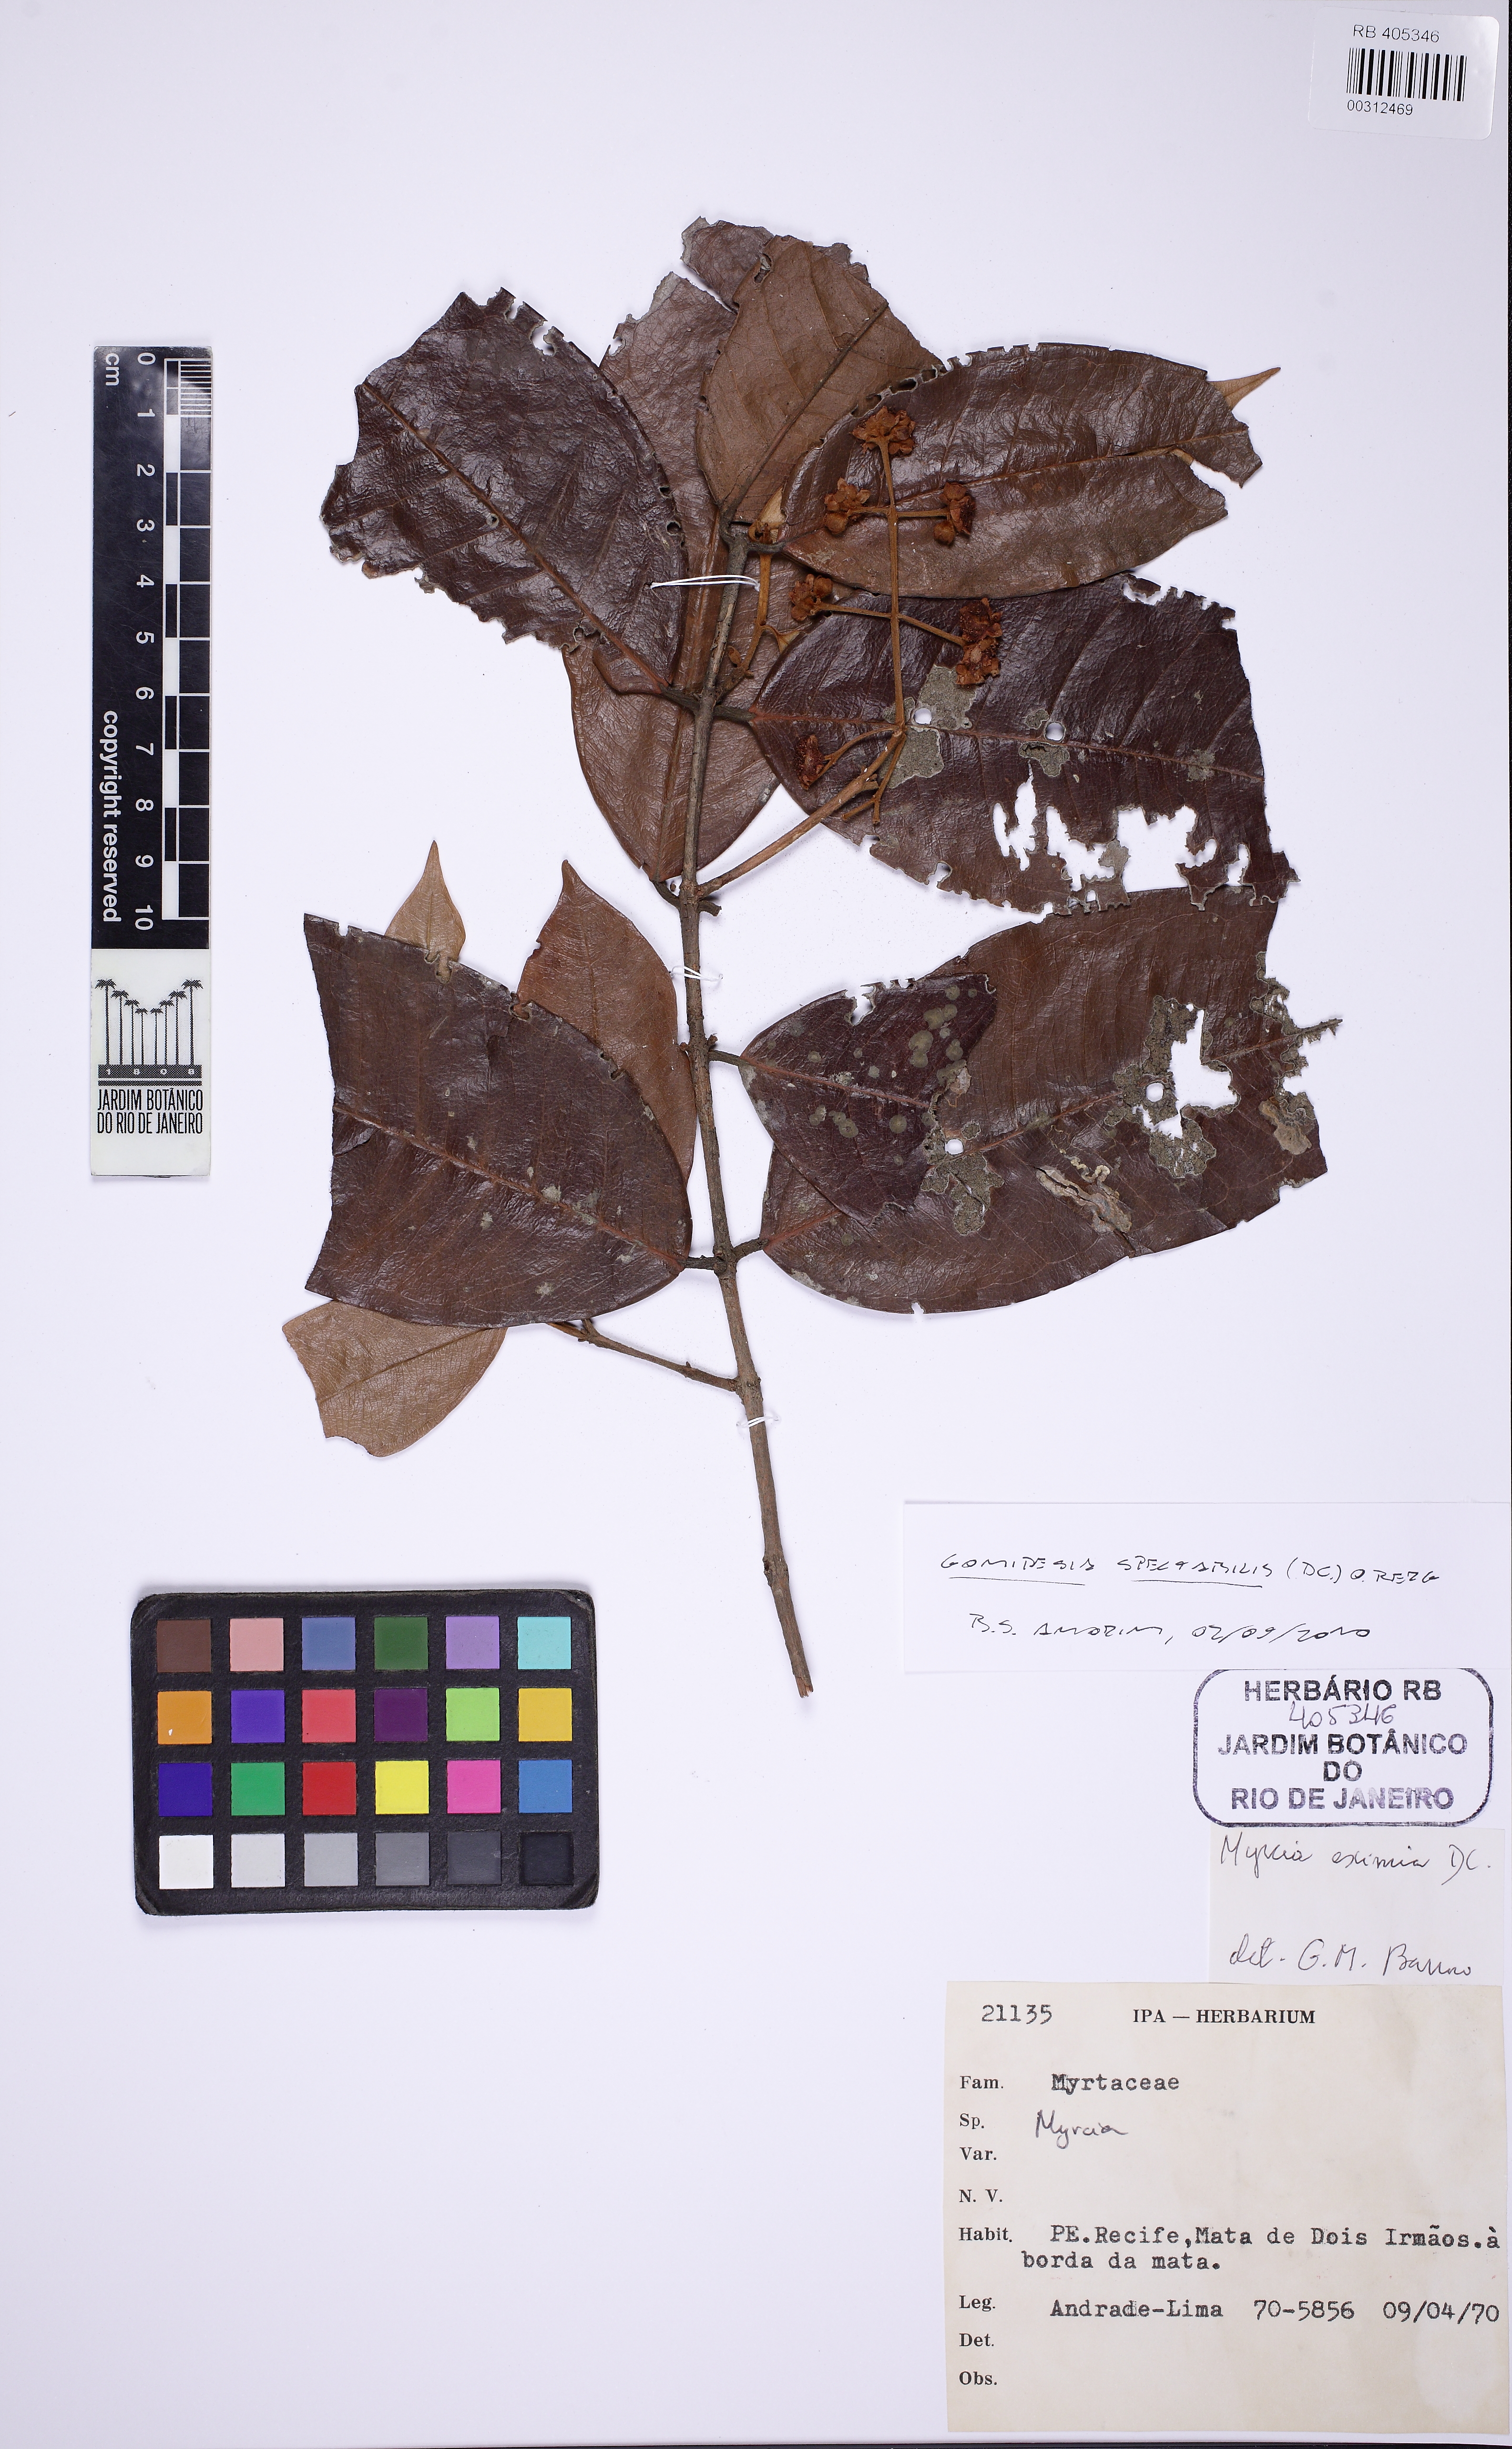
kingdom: Plantae
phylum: Tracheophyta
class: Magnoliopsida
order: Myrtales
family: Myrtaceae
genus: Myrcia
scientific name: Myrcia spectabilis
